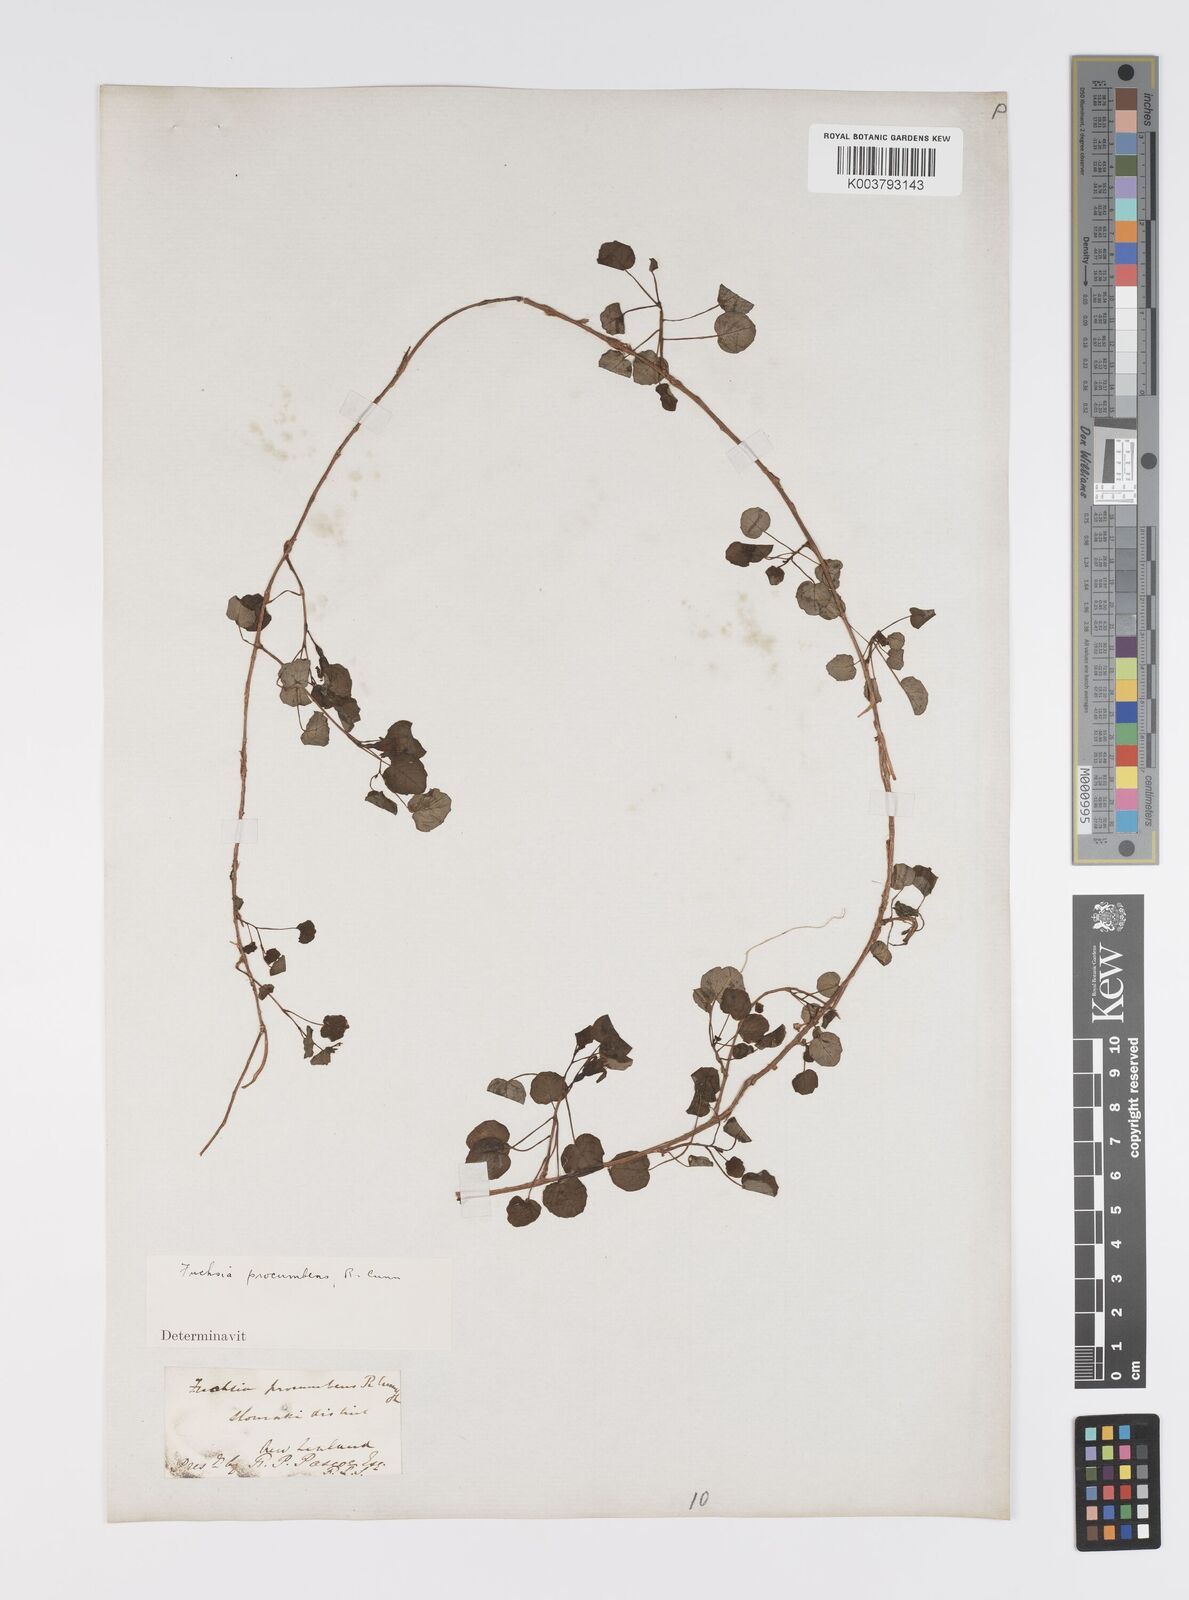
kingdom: Plantae
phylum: Tracheophyta
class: Magnoliopsida
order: Myrtales
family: Onagraceae
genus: Fuchsia
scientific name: Fuchsia procumbens
